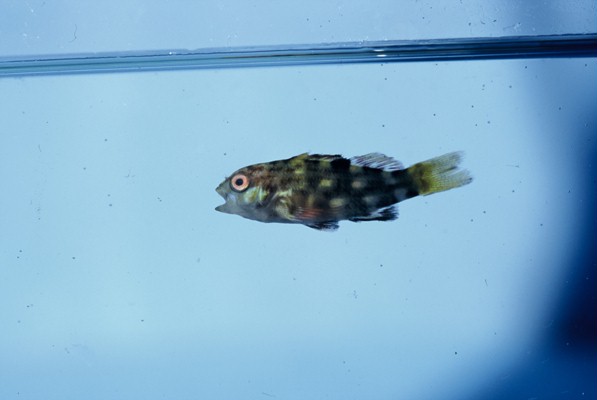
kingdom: Animalia
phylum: Chordata
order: Perciformes
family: Cirrhitidae
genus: Cirrhitus
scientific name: Cirrhitus pinnulatus
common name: Stocky hawkfish
